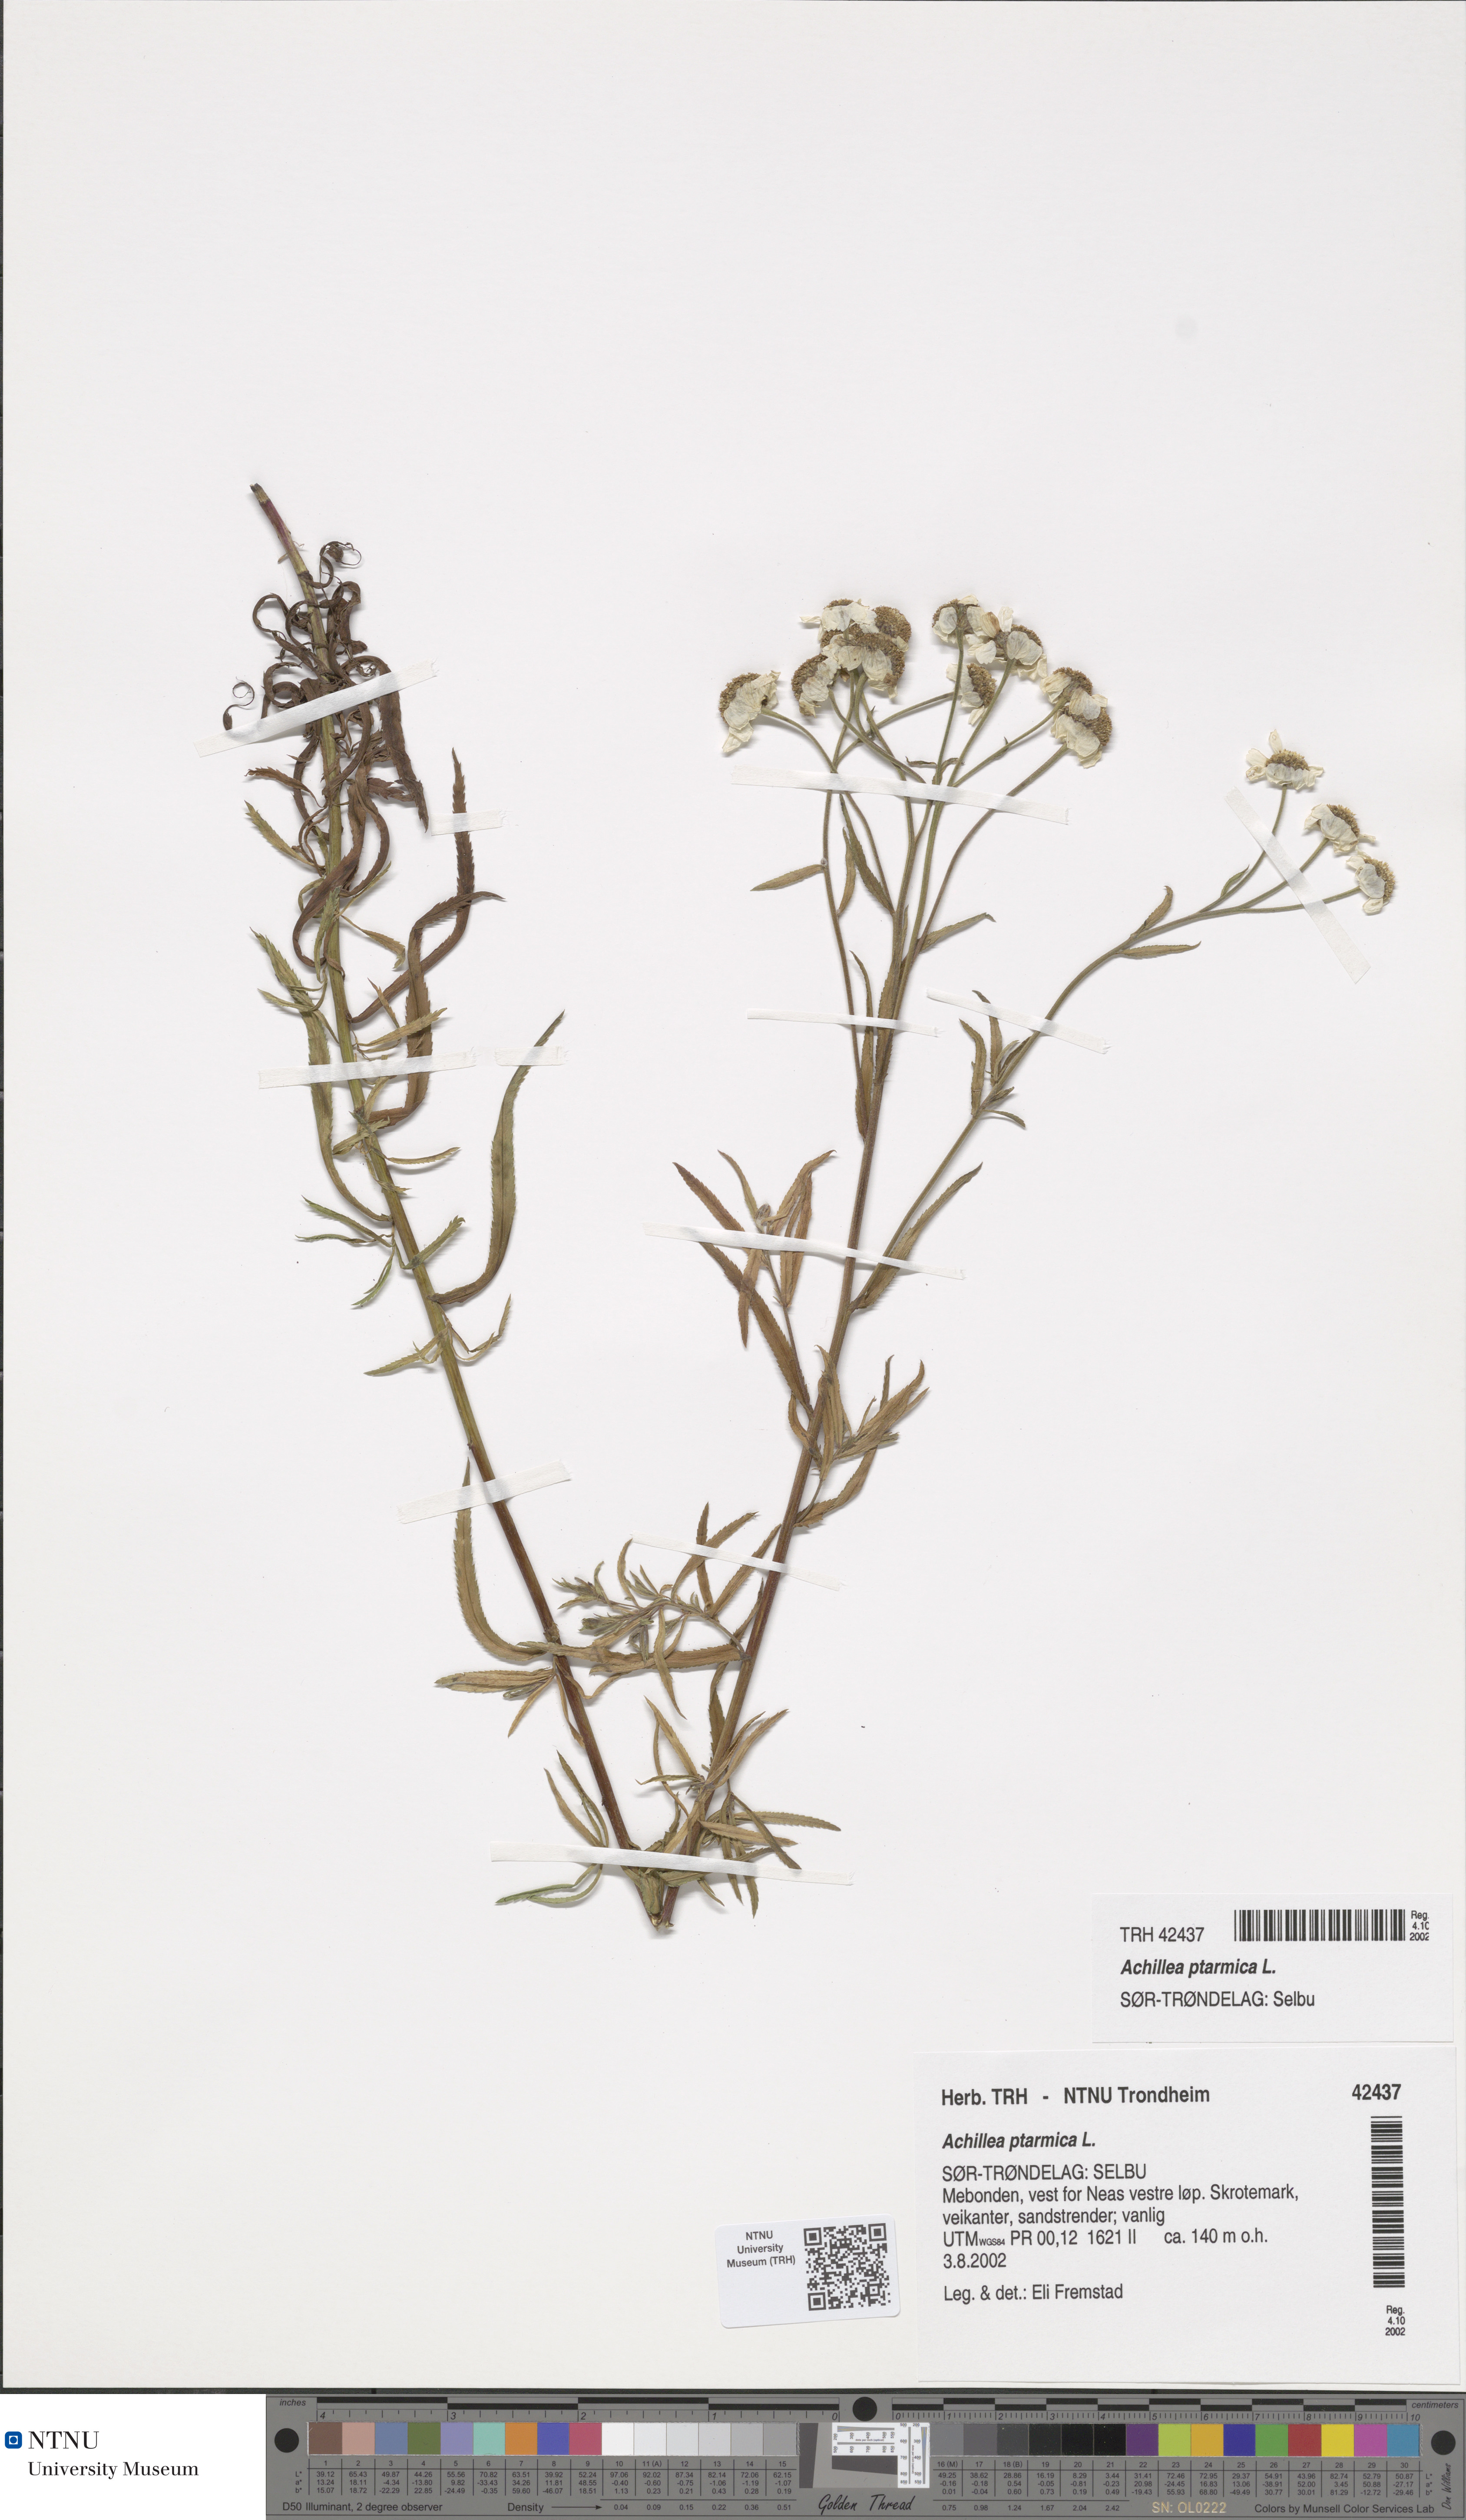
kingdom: Plantae
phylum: Tracheophyta
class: Magnoliopsida
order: Asterales
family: Asteraceae
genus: Achillea
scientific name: Achillea ptarmica
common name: Sneezeweed
